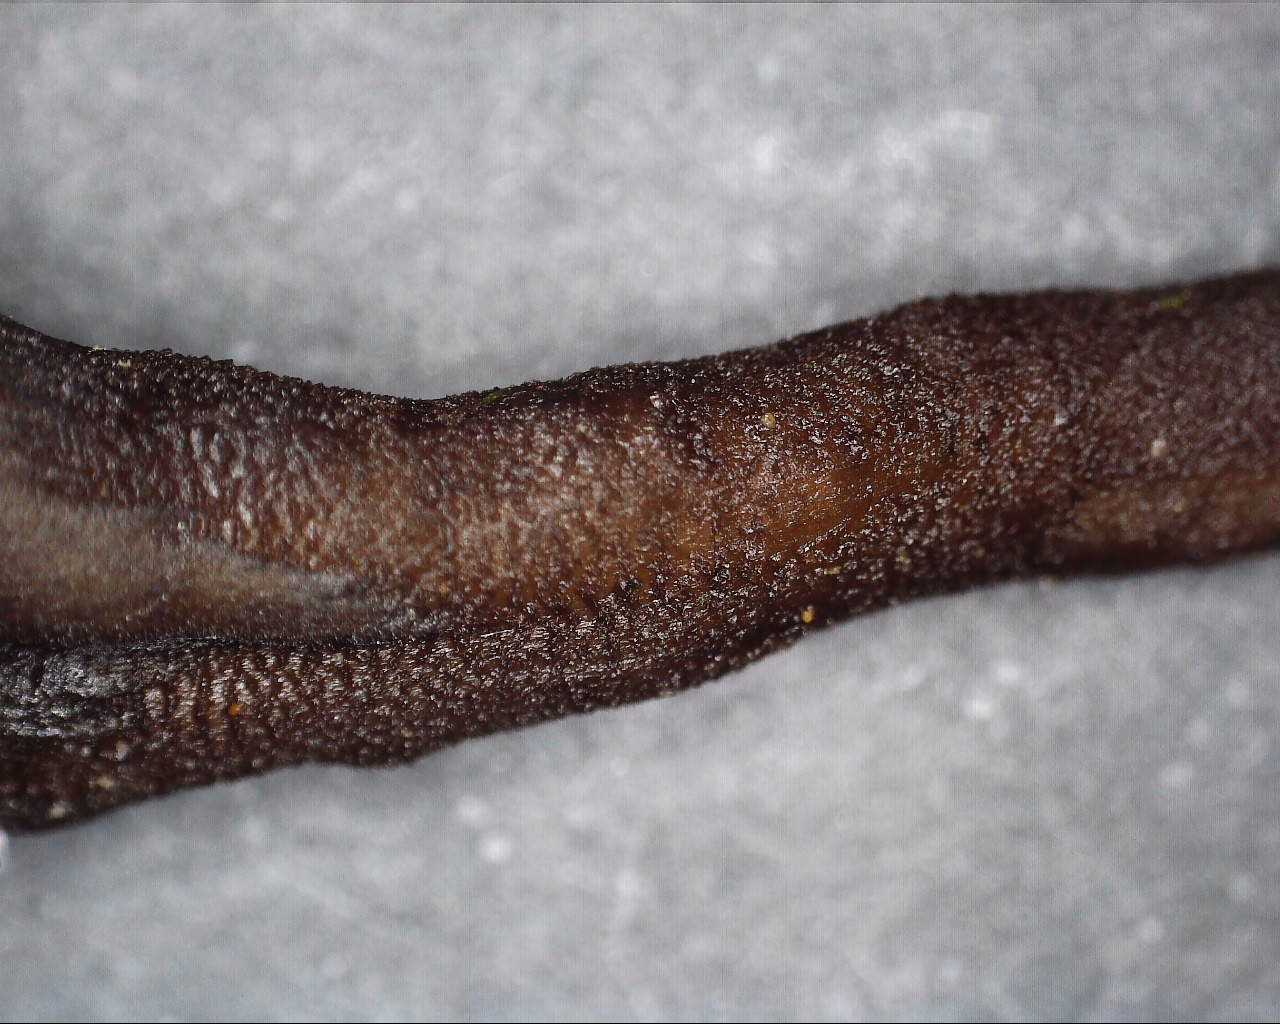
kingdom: Fungi
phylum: Ascomycota
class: Geoglossomycetes
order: Geoglossales
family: Geoglossaceae
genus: Hemileucoglossum
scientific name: Hemileucoglossum elongatum
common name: småsporet jordtunge
